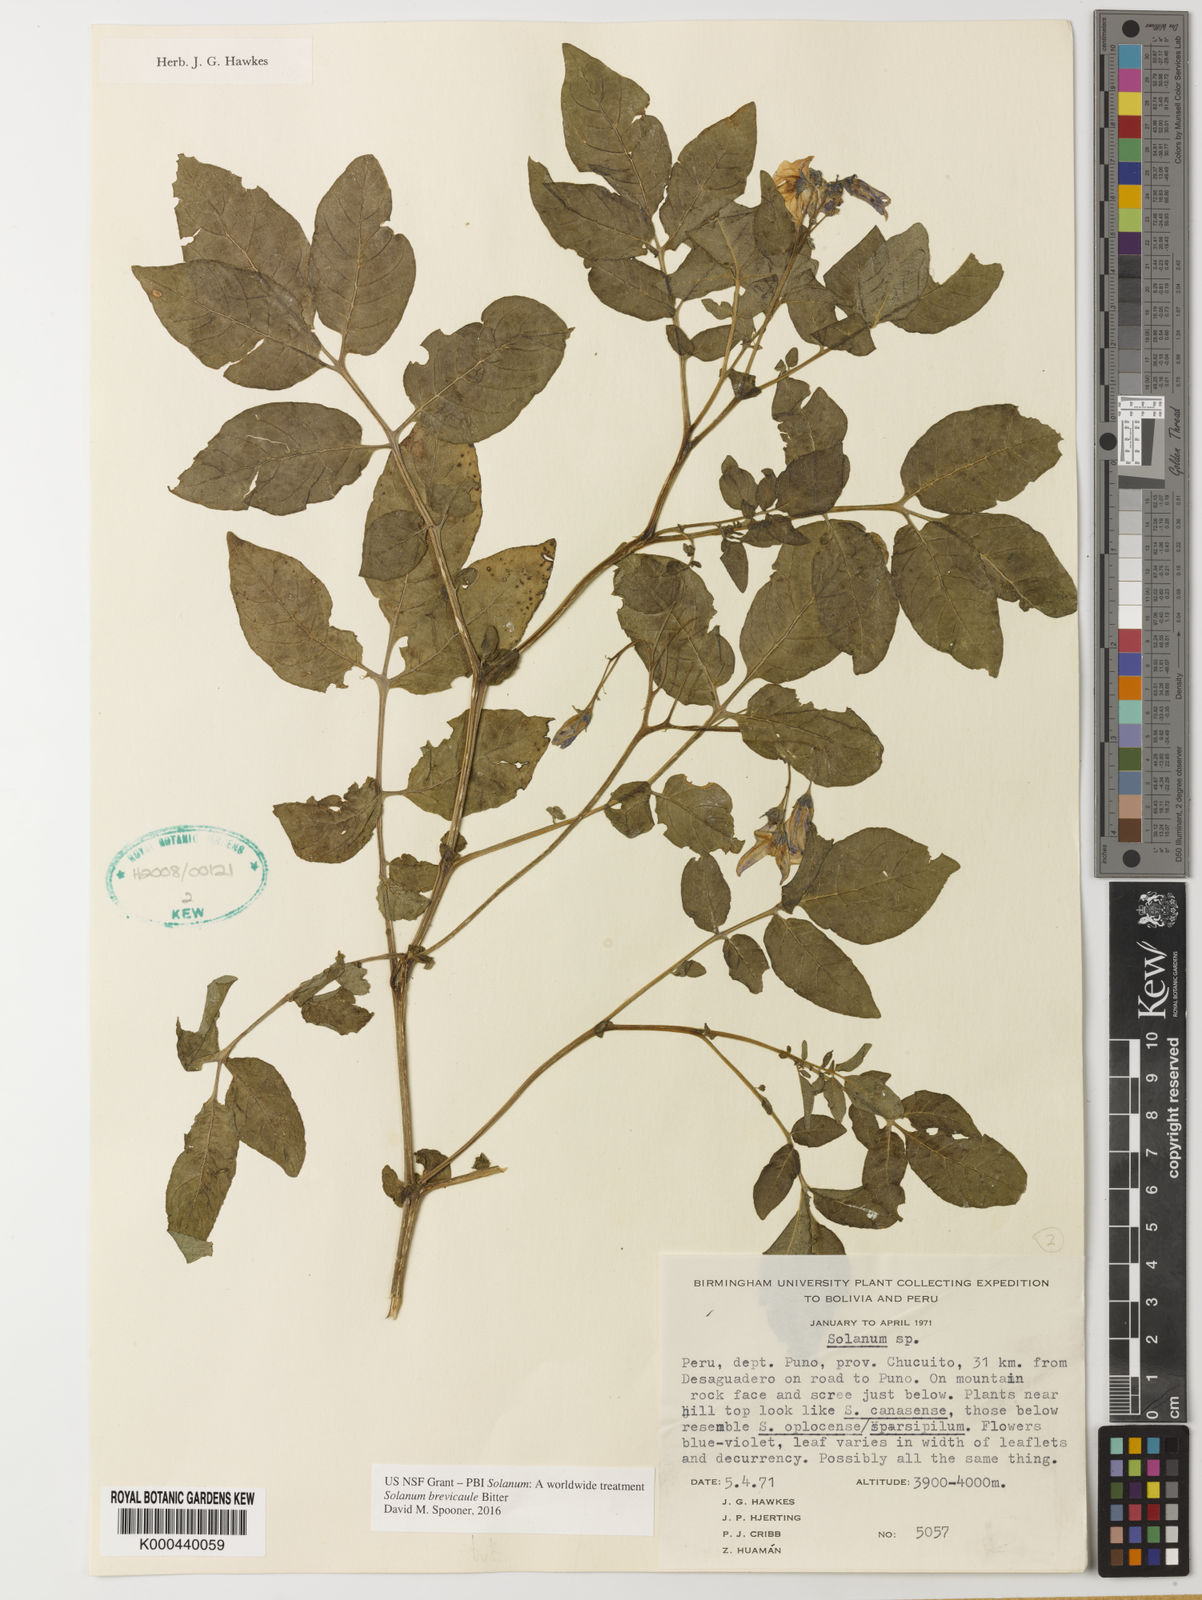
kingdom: Plantae
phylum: Tracheophyta
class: Magnoliopsida
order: Solanales
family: Solanaceae
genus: Solanum
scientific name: Solanum candolleanum
